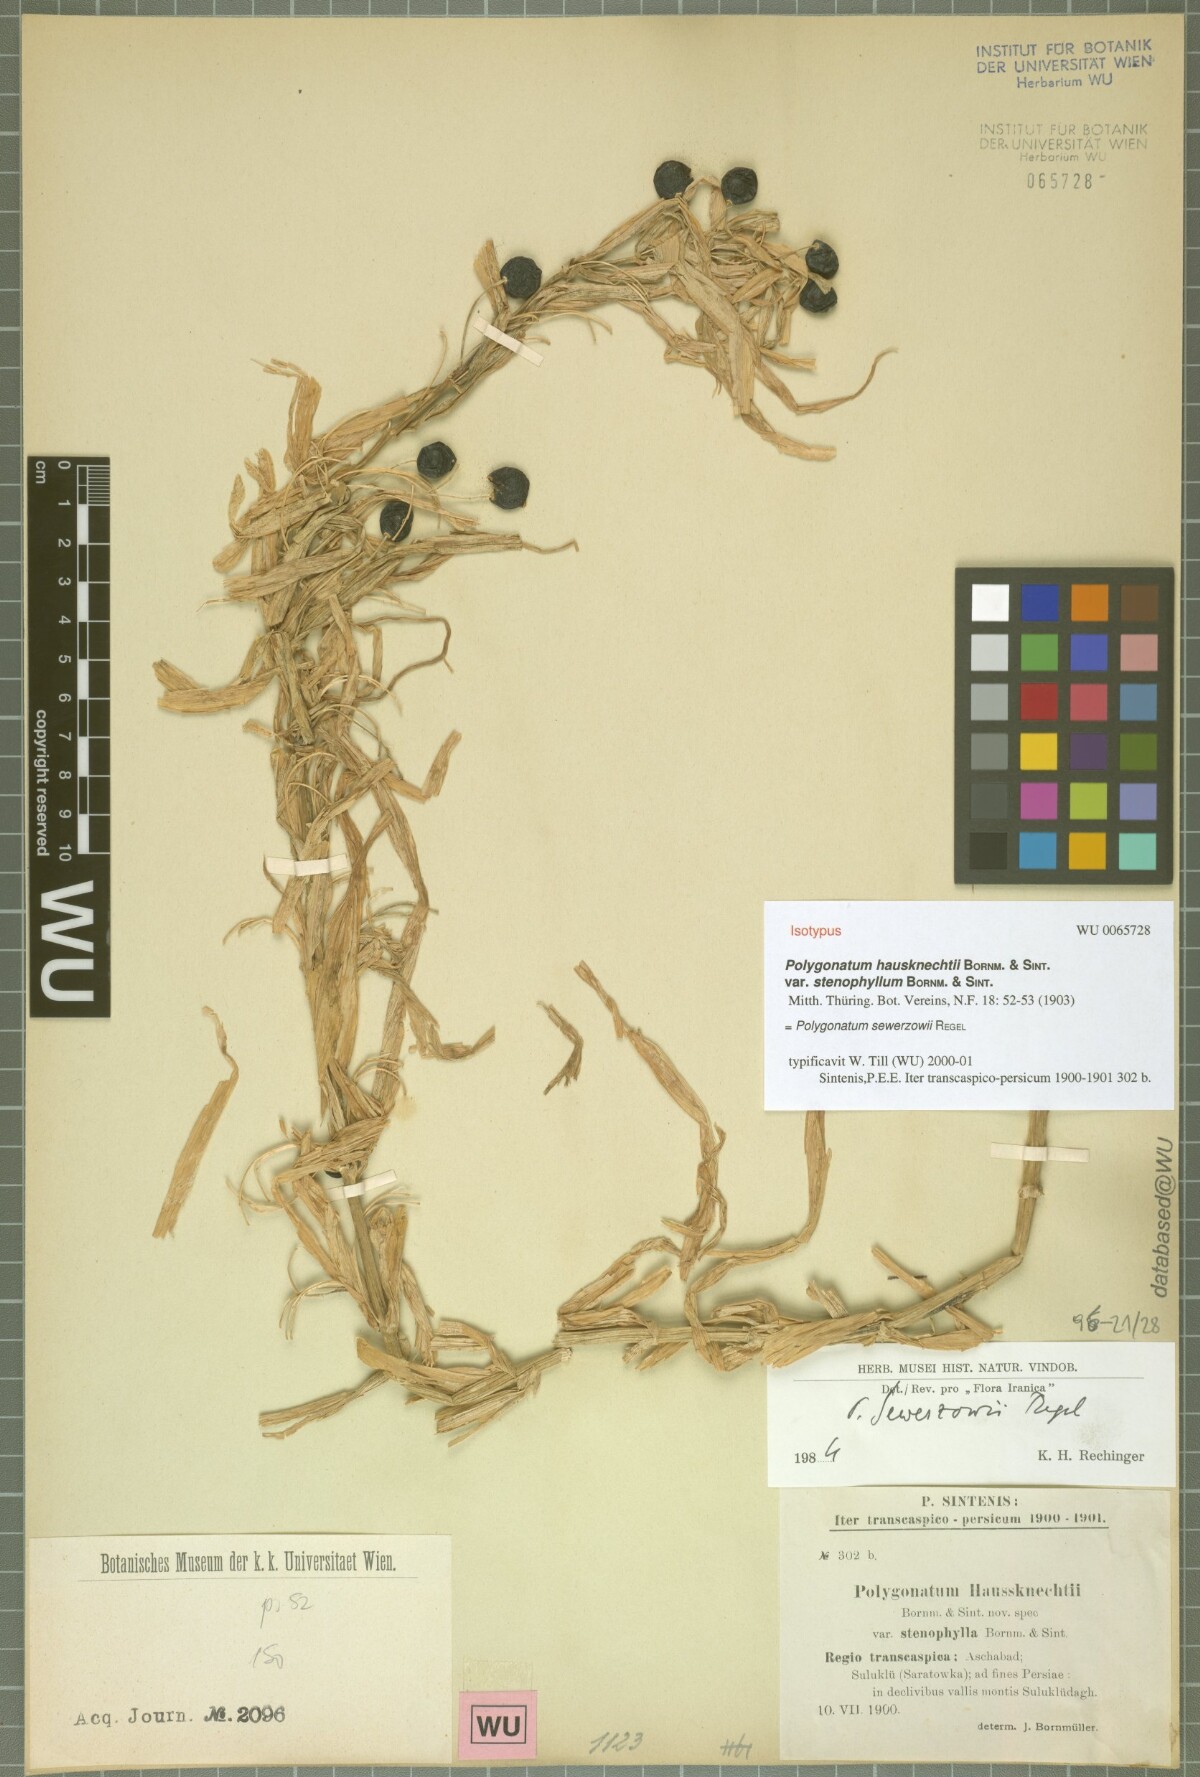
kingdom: Plantae
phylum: Tracheophyta
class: Liliopsida
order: Asparagales
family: Asparagaceae
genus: Polygonatum
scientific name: Polygonatum sewerzowii
